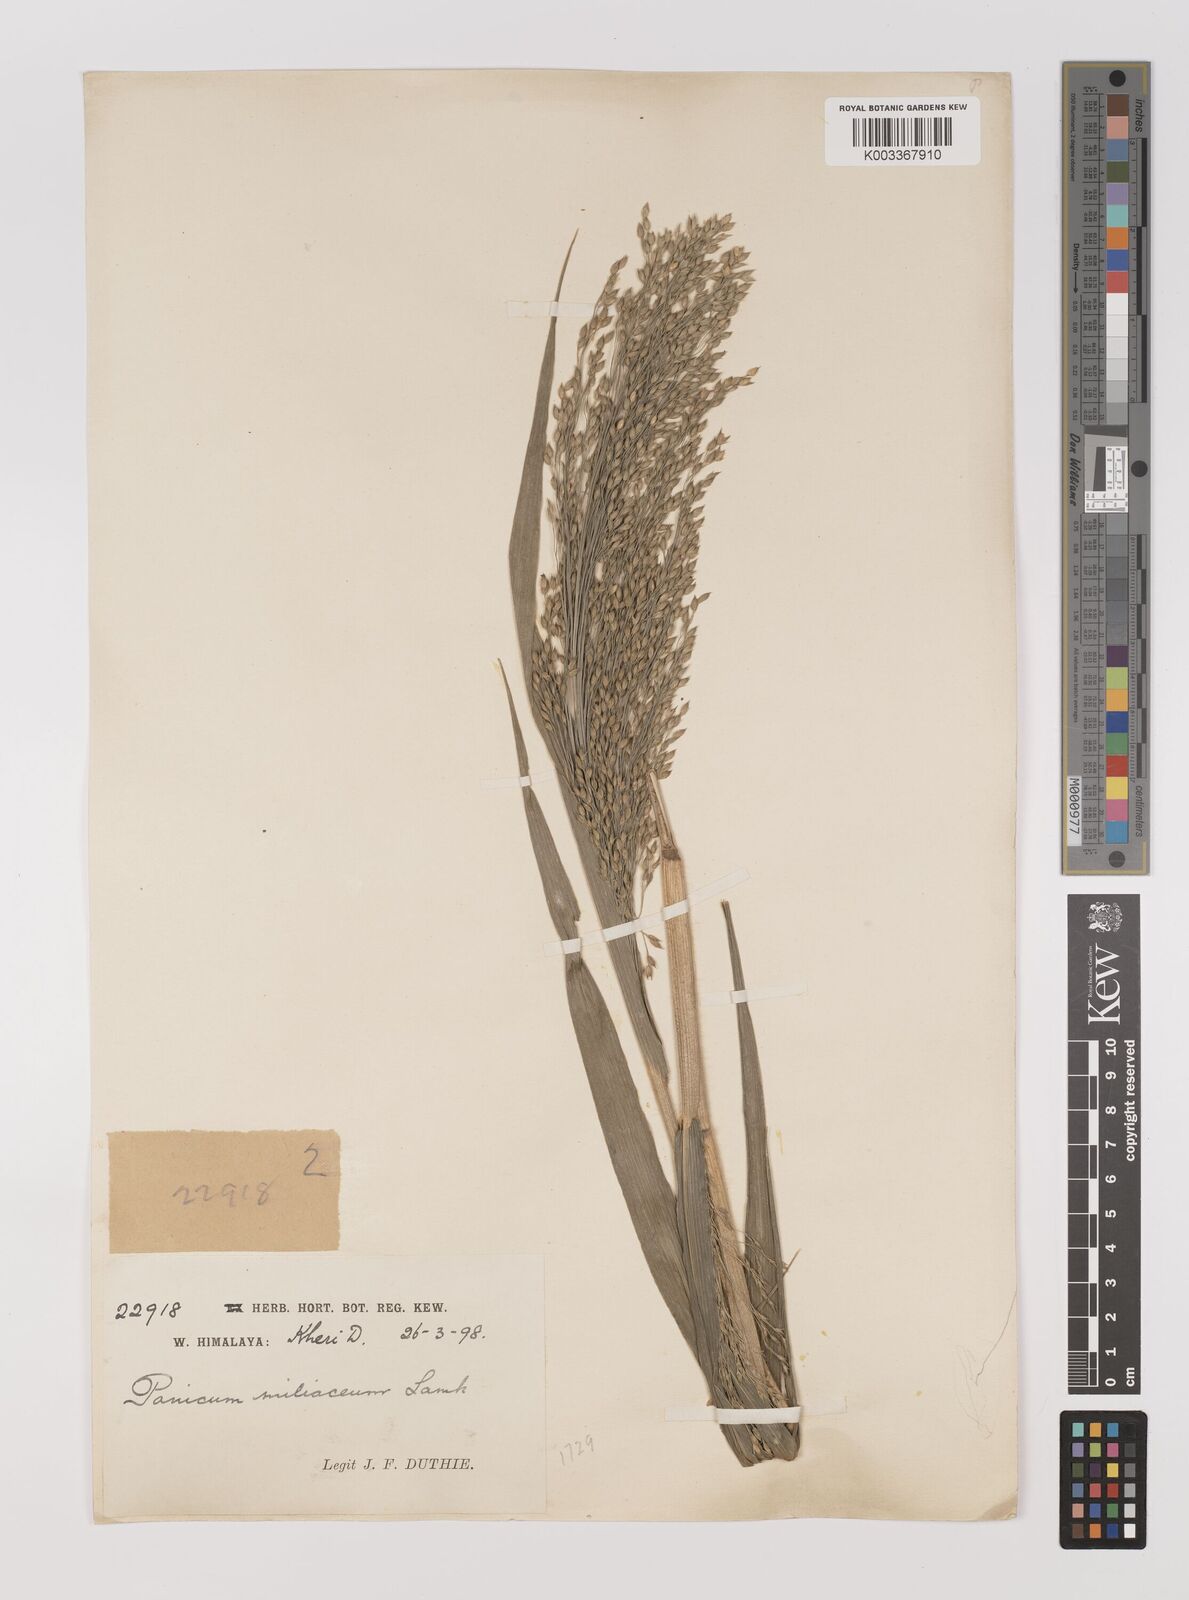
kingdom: Plantae
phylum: Tracheophyta
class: Liliopsida
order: Poales
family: Poaceae
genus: Panicum
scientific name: Panicum miliaceum
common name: Common millet
